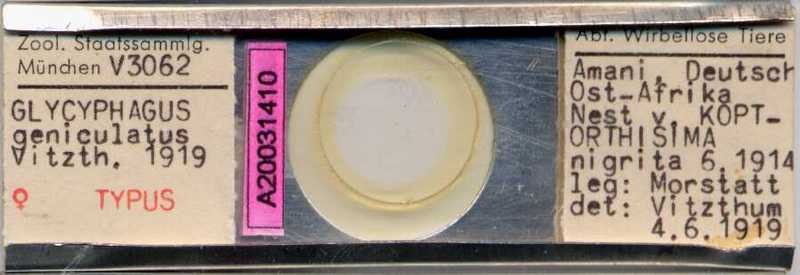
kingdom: Animalia
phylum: Arthropoda
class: Arachnida
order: Sarcoptiformes
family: Glycyphagidae
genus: Glycyphagus
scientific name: Glycyphagus
